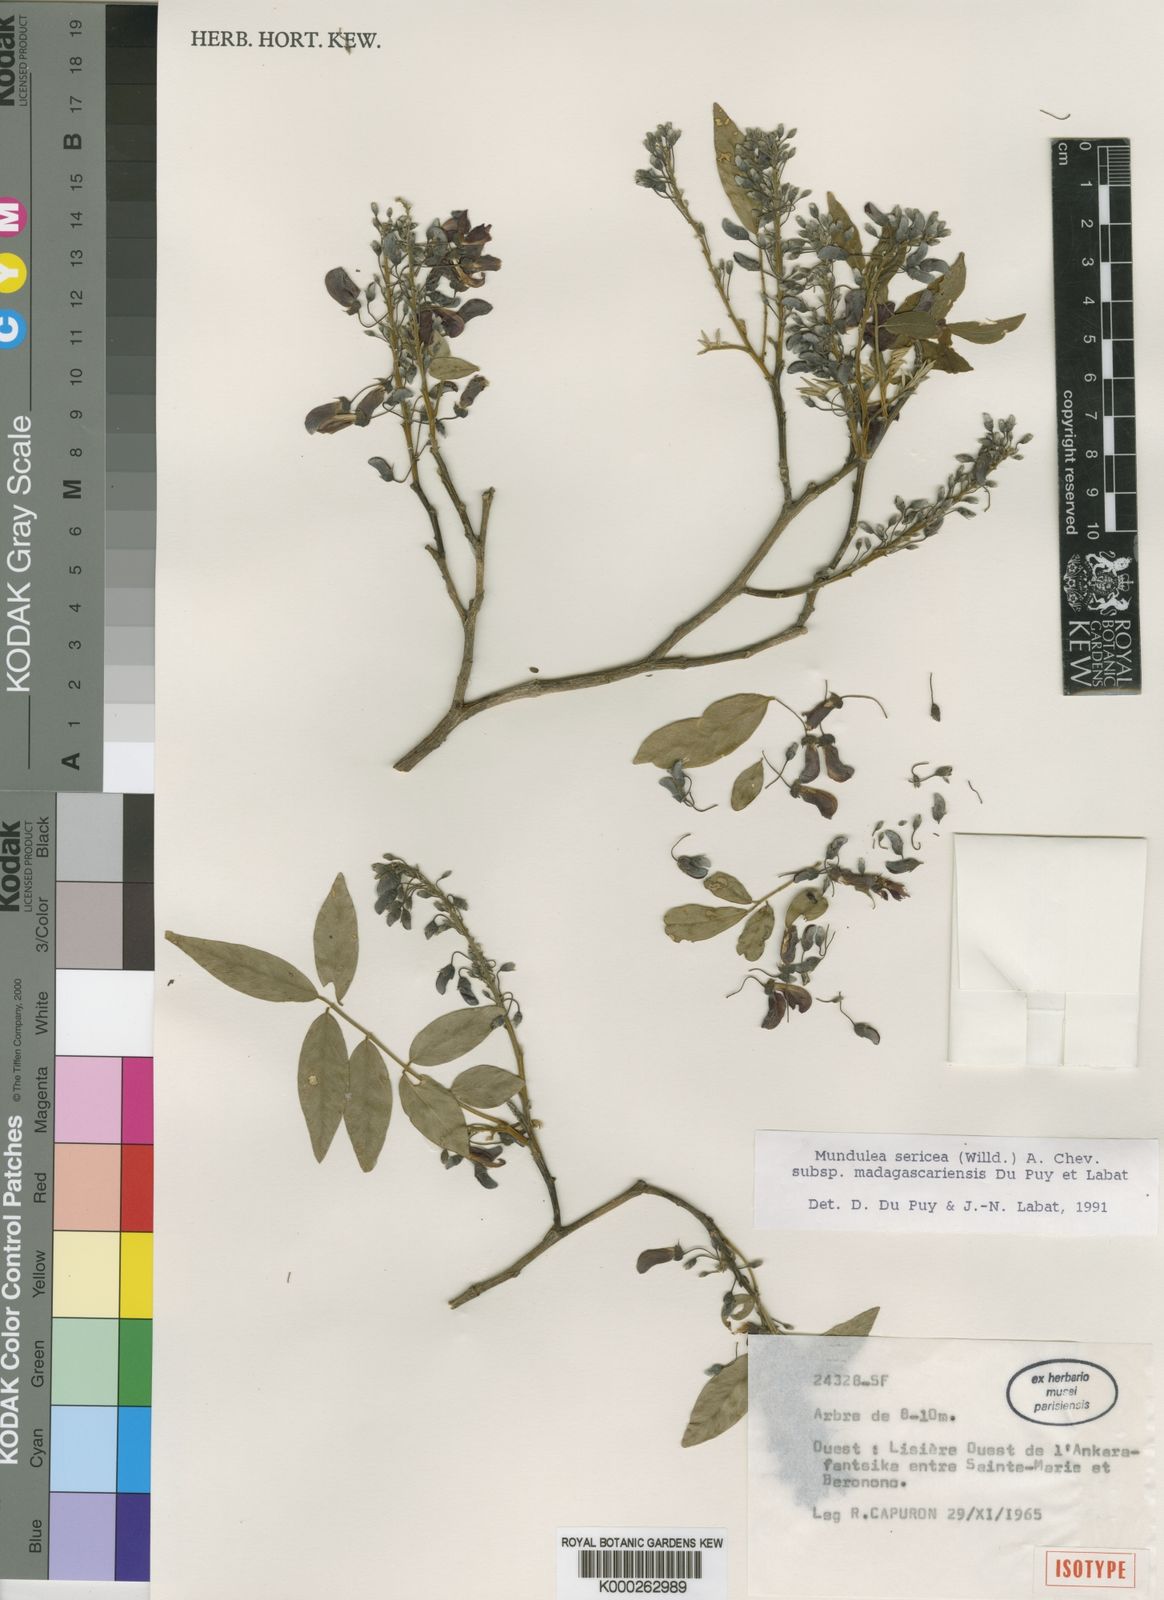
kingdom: Plantae
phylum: Tracheophyta
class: Magnoliopsida
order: Fabales
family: Fabaceae
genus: Mundulea
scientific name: Mundulea sericea
